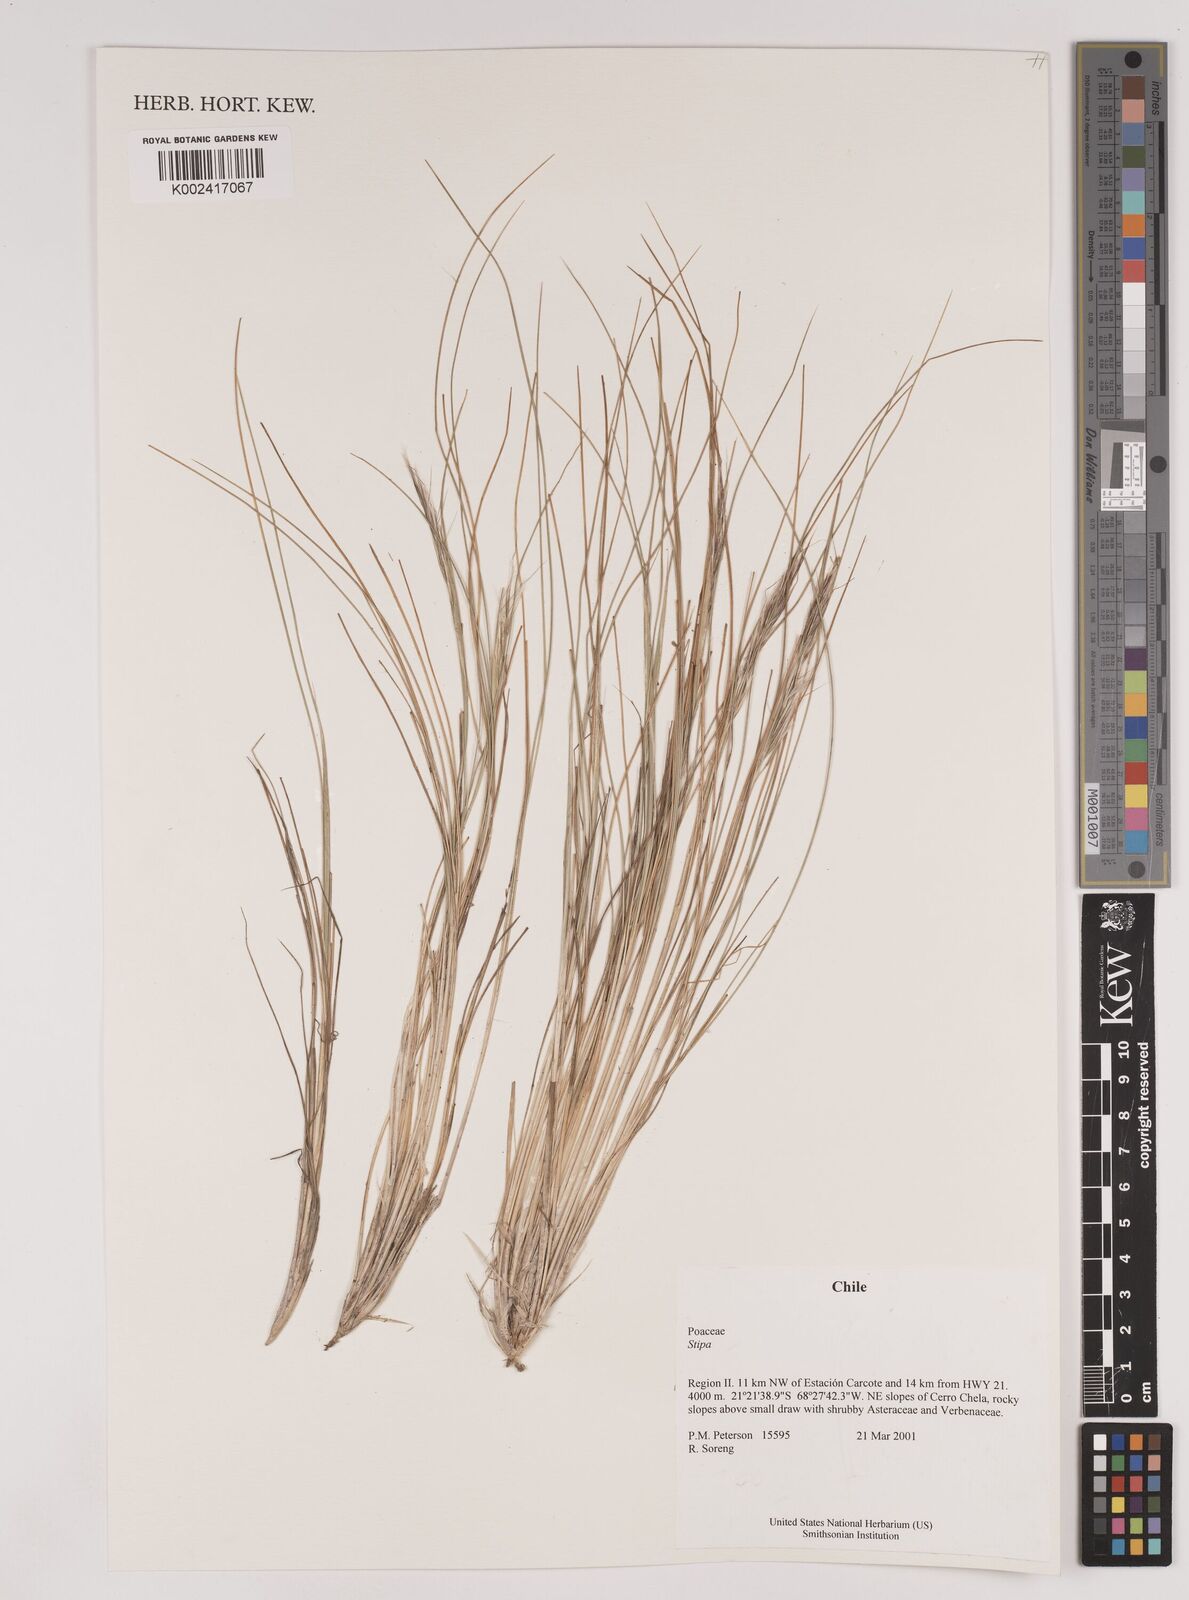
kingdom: Plantae
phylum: Tracheophyta
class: Liliopsida
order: Poales
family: Poaceae
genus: Pappostipa
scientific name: Pappostipa atacamensis
